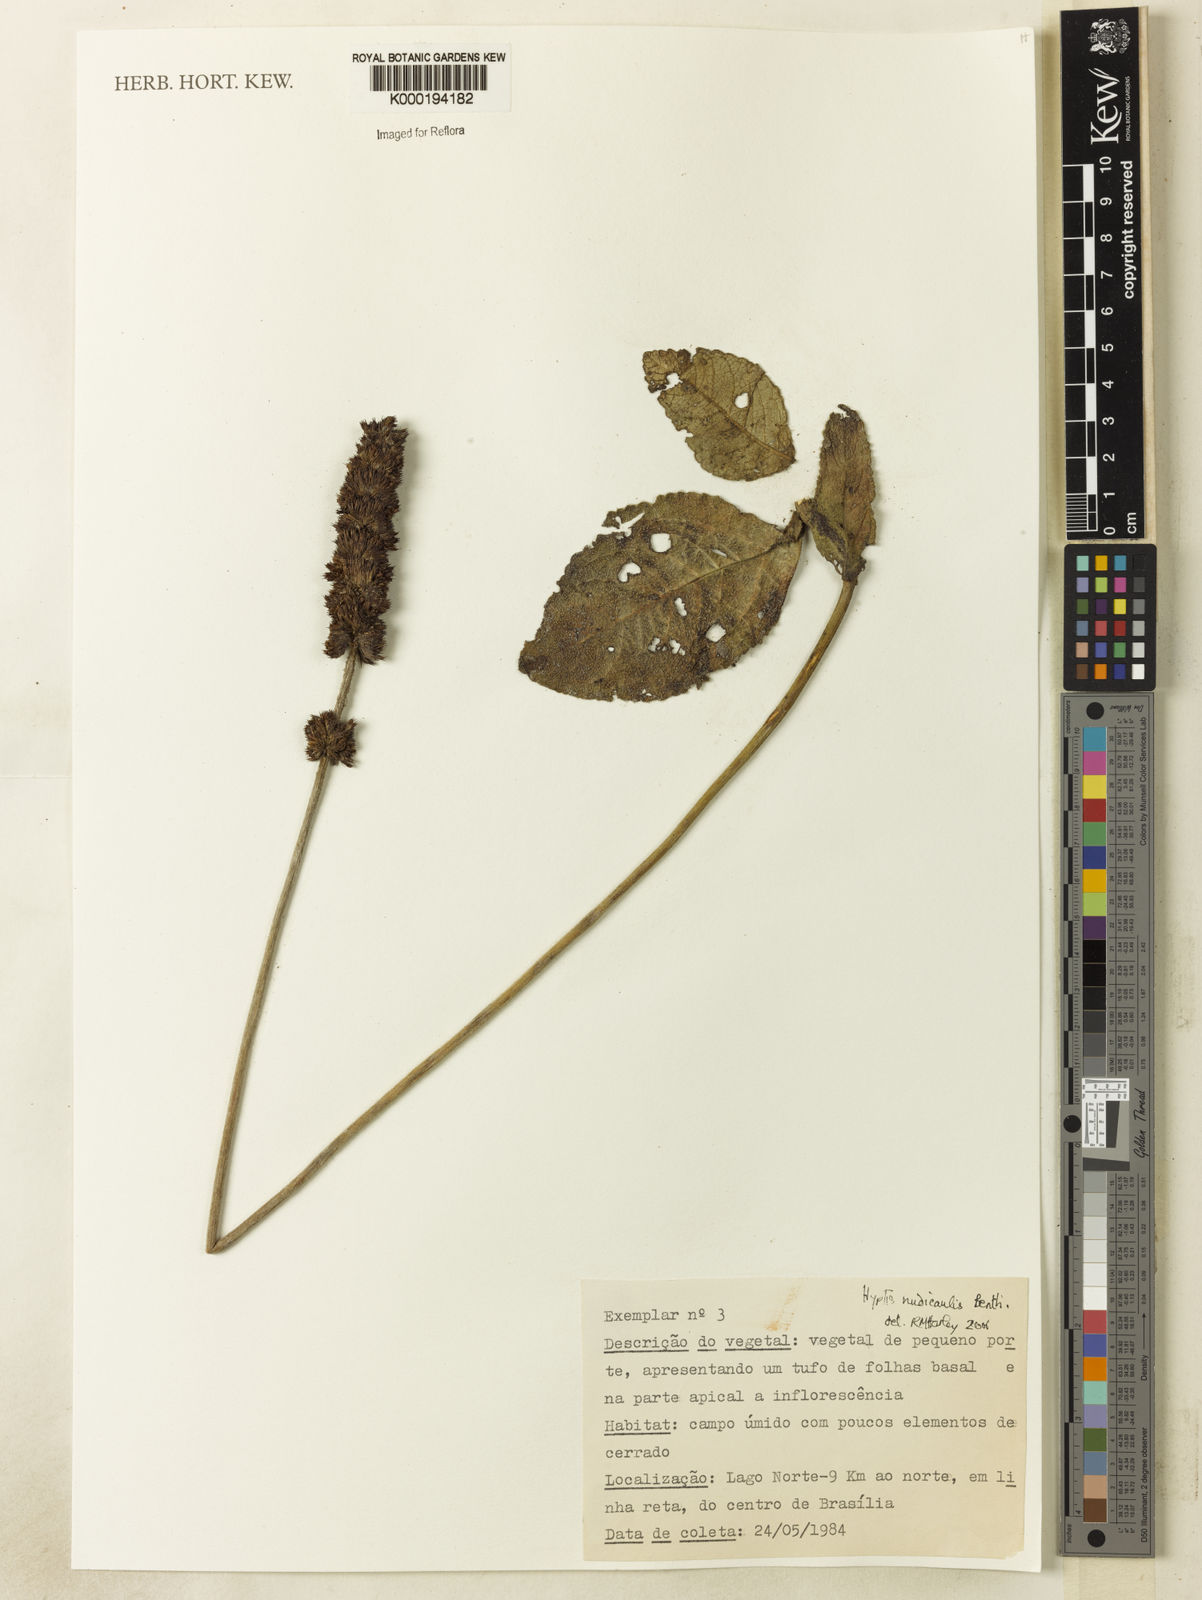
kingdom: Plantae
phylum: Tracheophyta
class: Magnoliopsida
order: Lamiales
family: Lamiaceae
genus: Hyptis
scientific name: Hyptis nudicaulis
